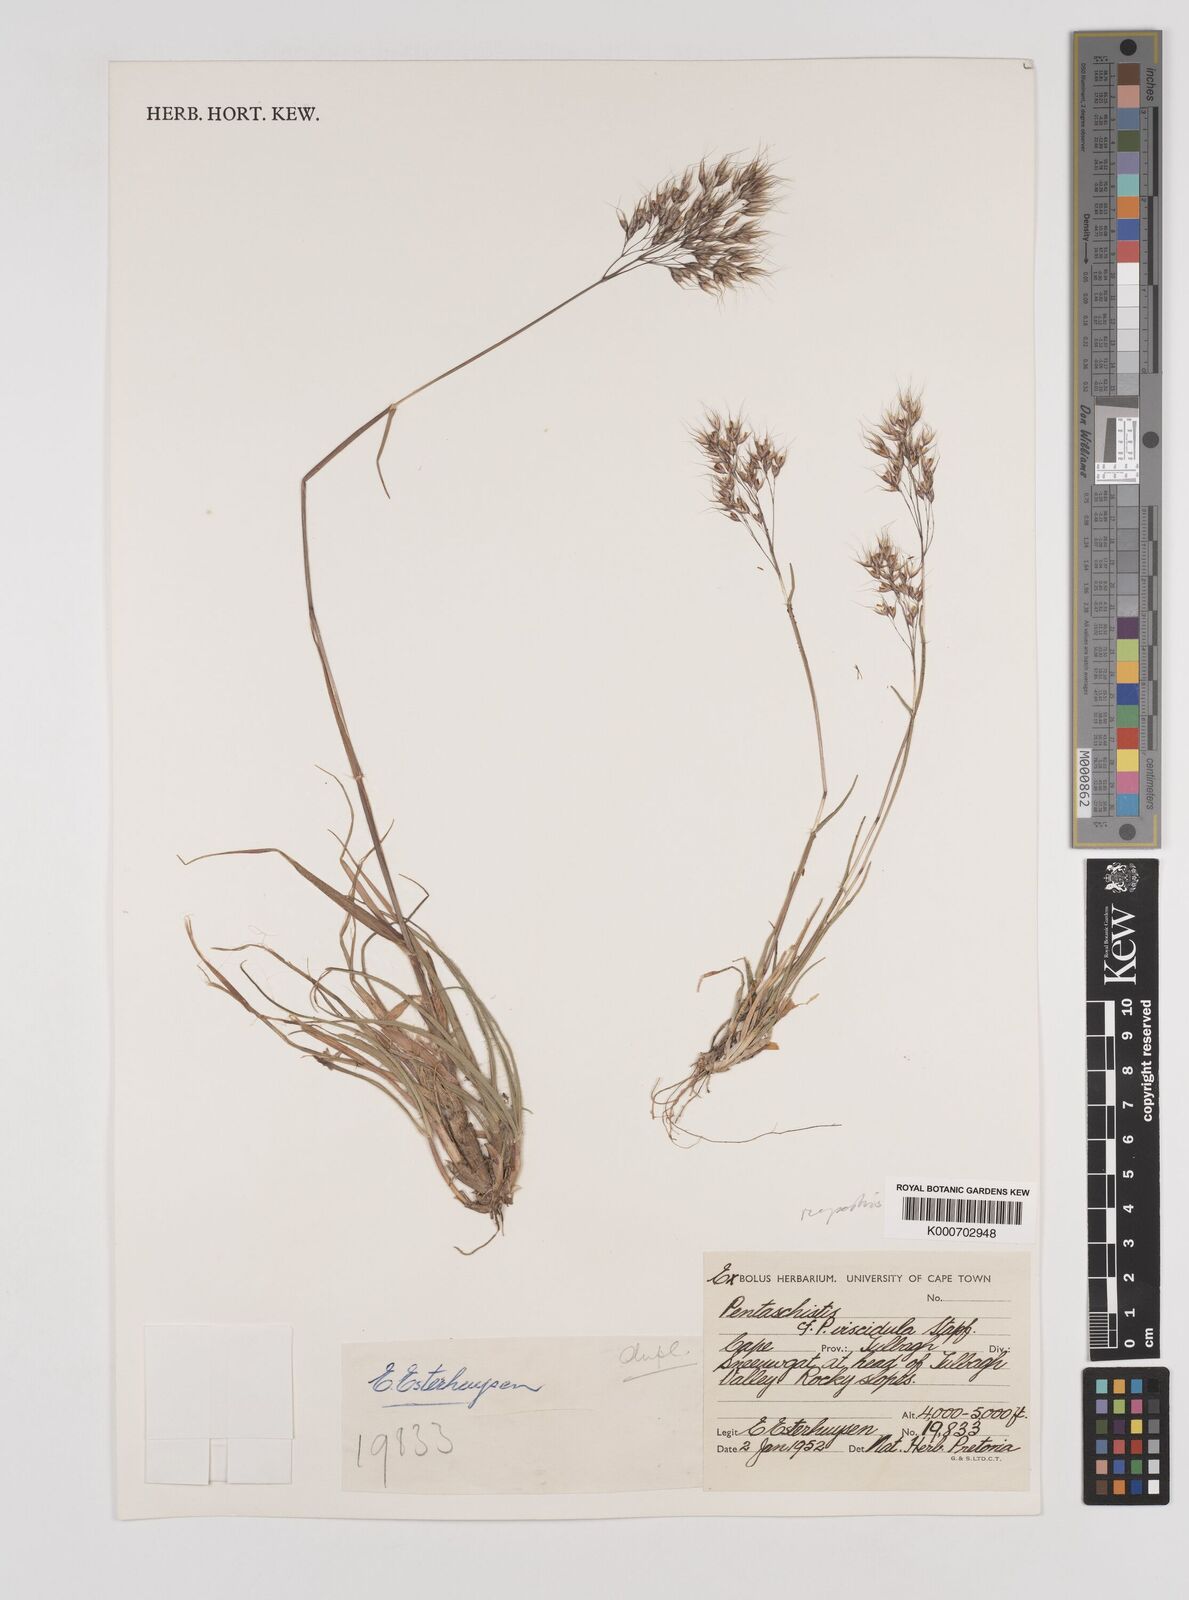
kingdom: Plantae
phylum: Tracheophyta
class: Liliopsida
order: Poales
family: Poaceae
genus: Pentameris
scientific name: Pentameris rupestris
